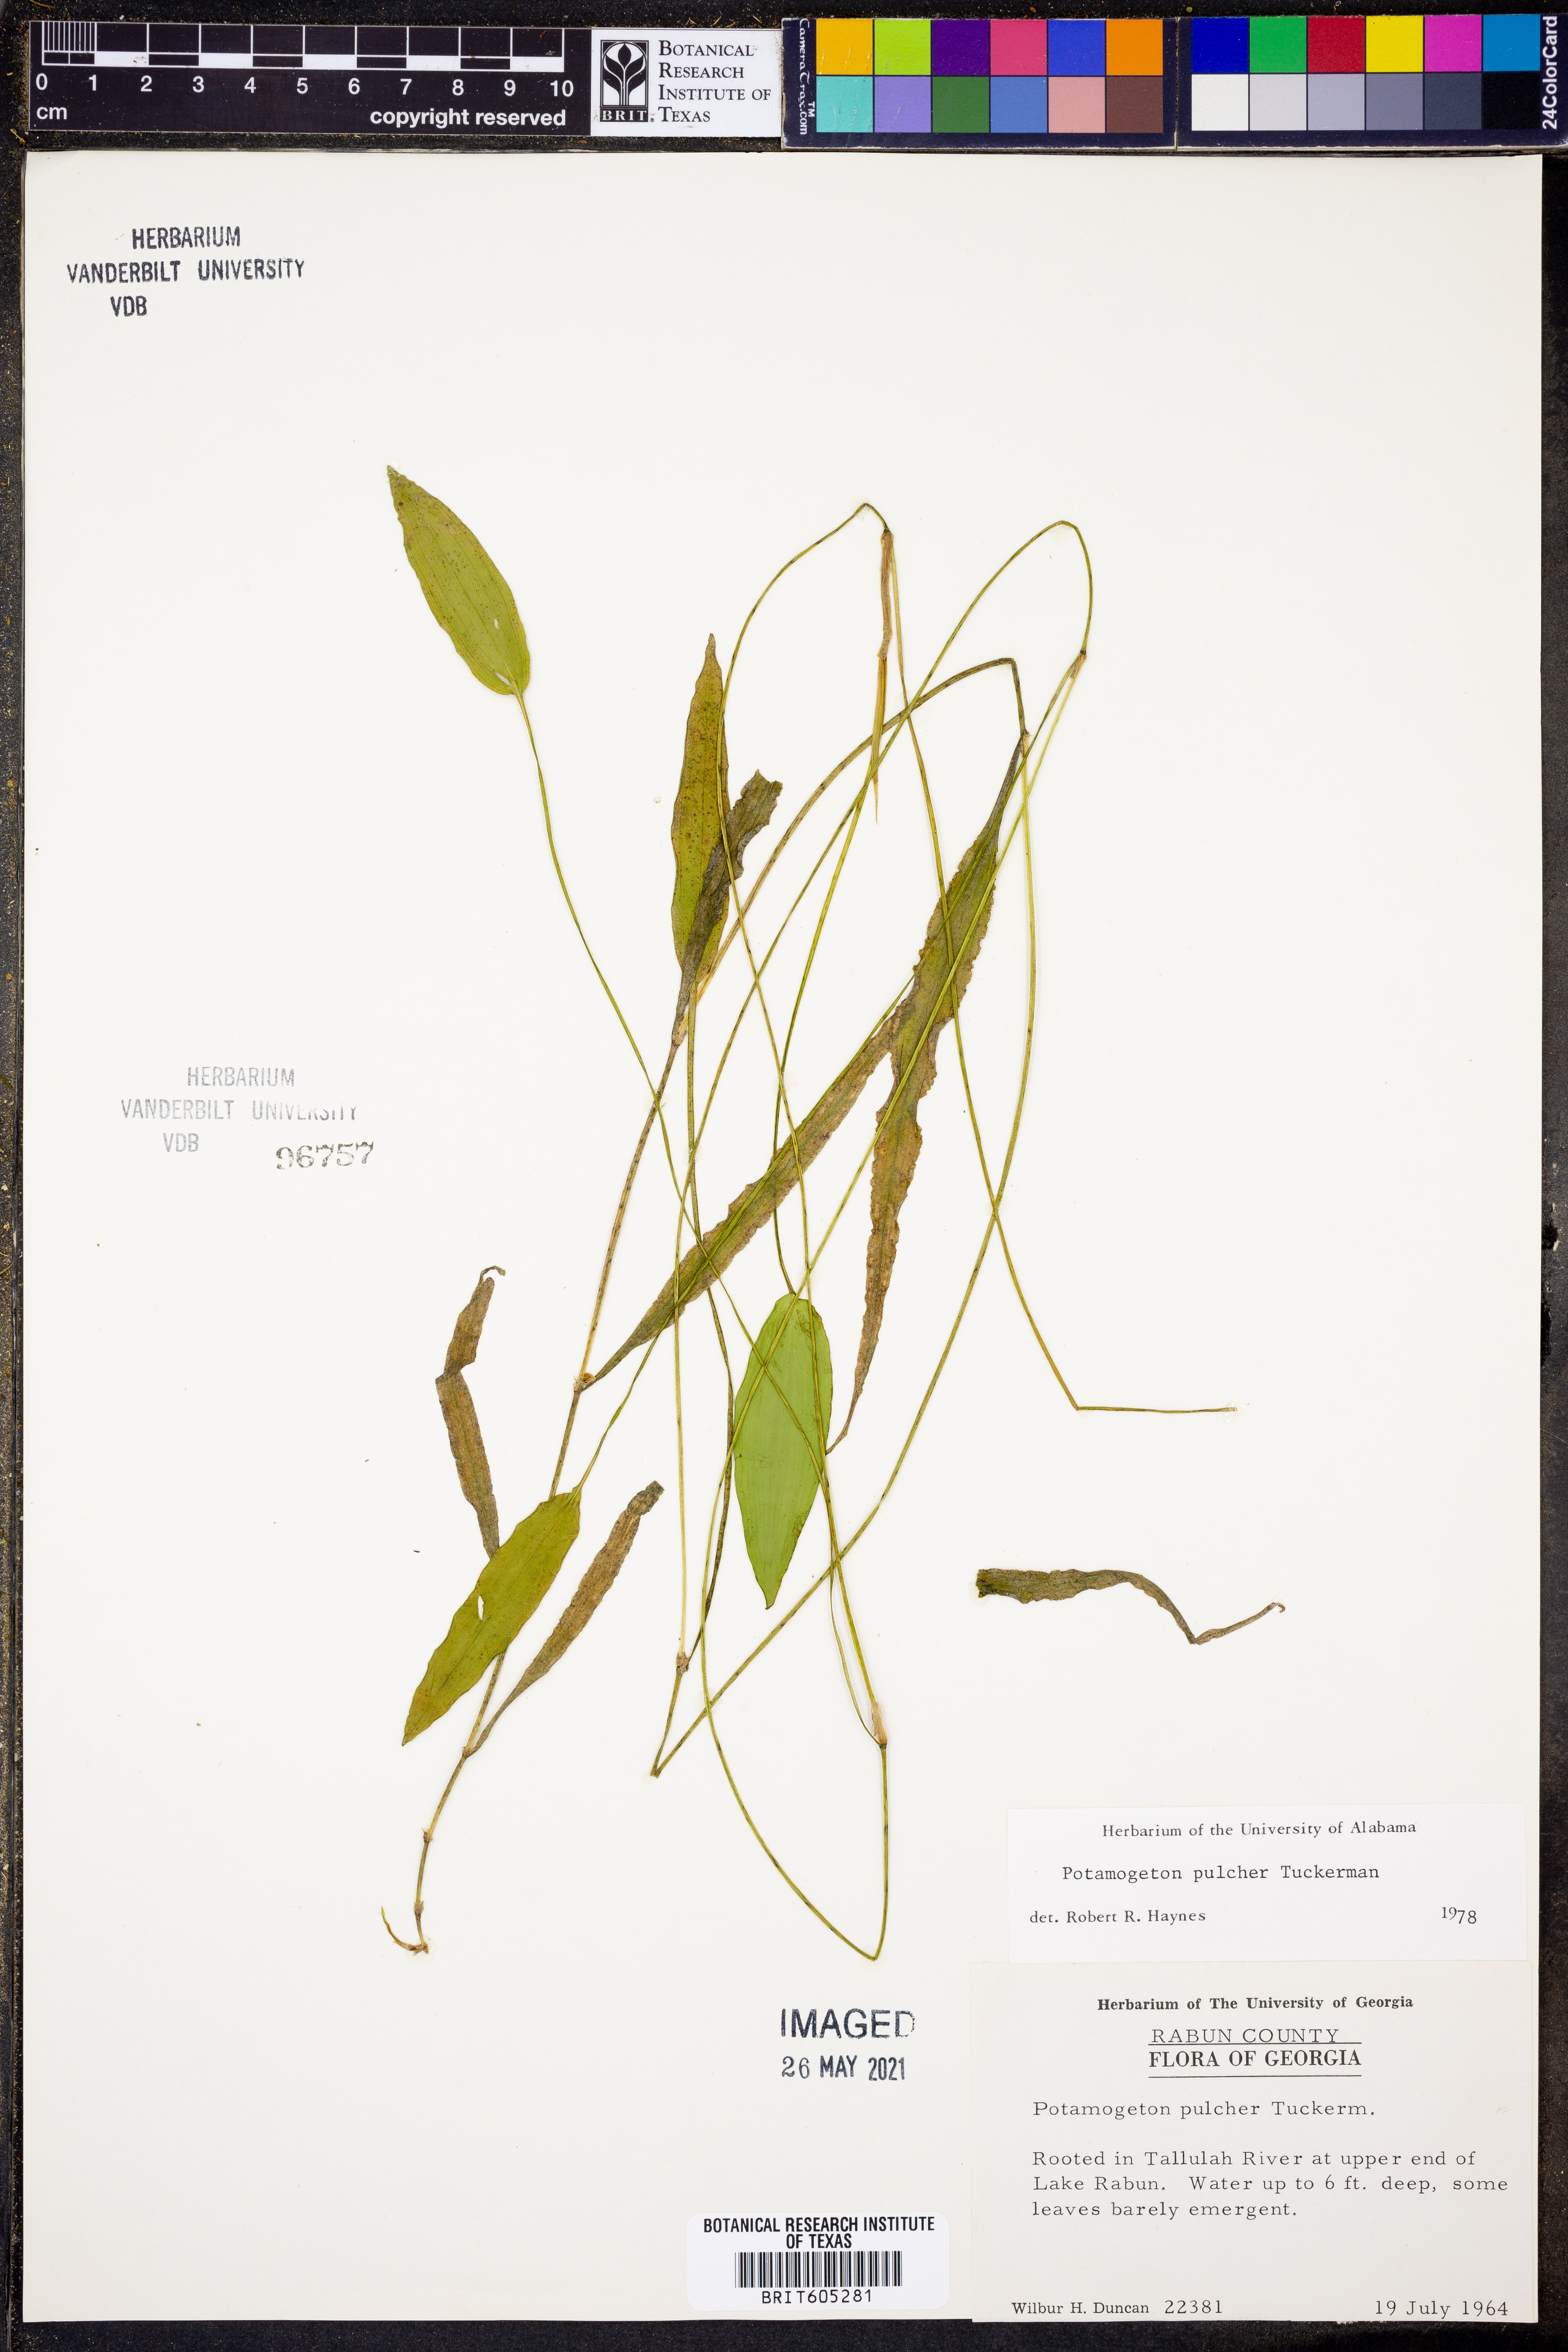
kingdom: Plantae
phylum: Tracheophyta
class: Liliopsida
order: Alismatales
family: Potamogetonaceae
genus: Potamogeton
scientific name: Potamogeton pulcher
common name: Heart-leaved pondweed
